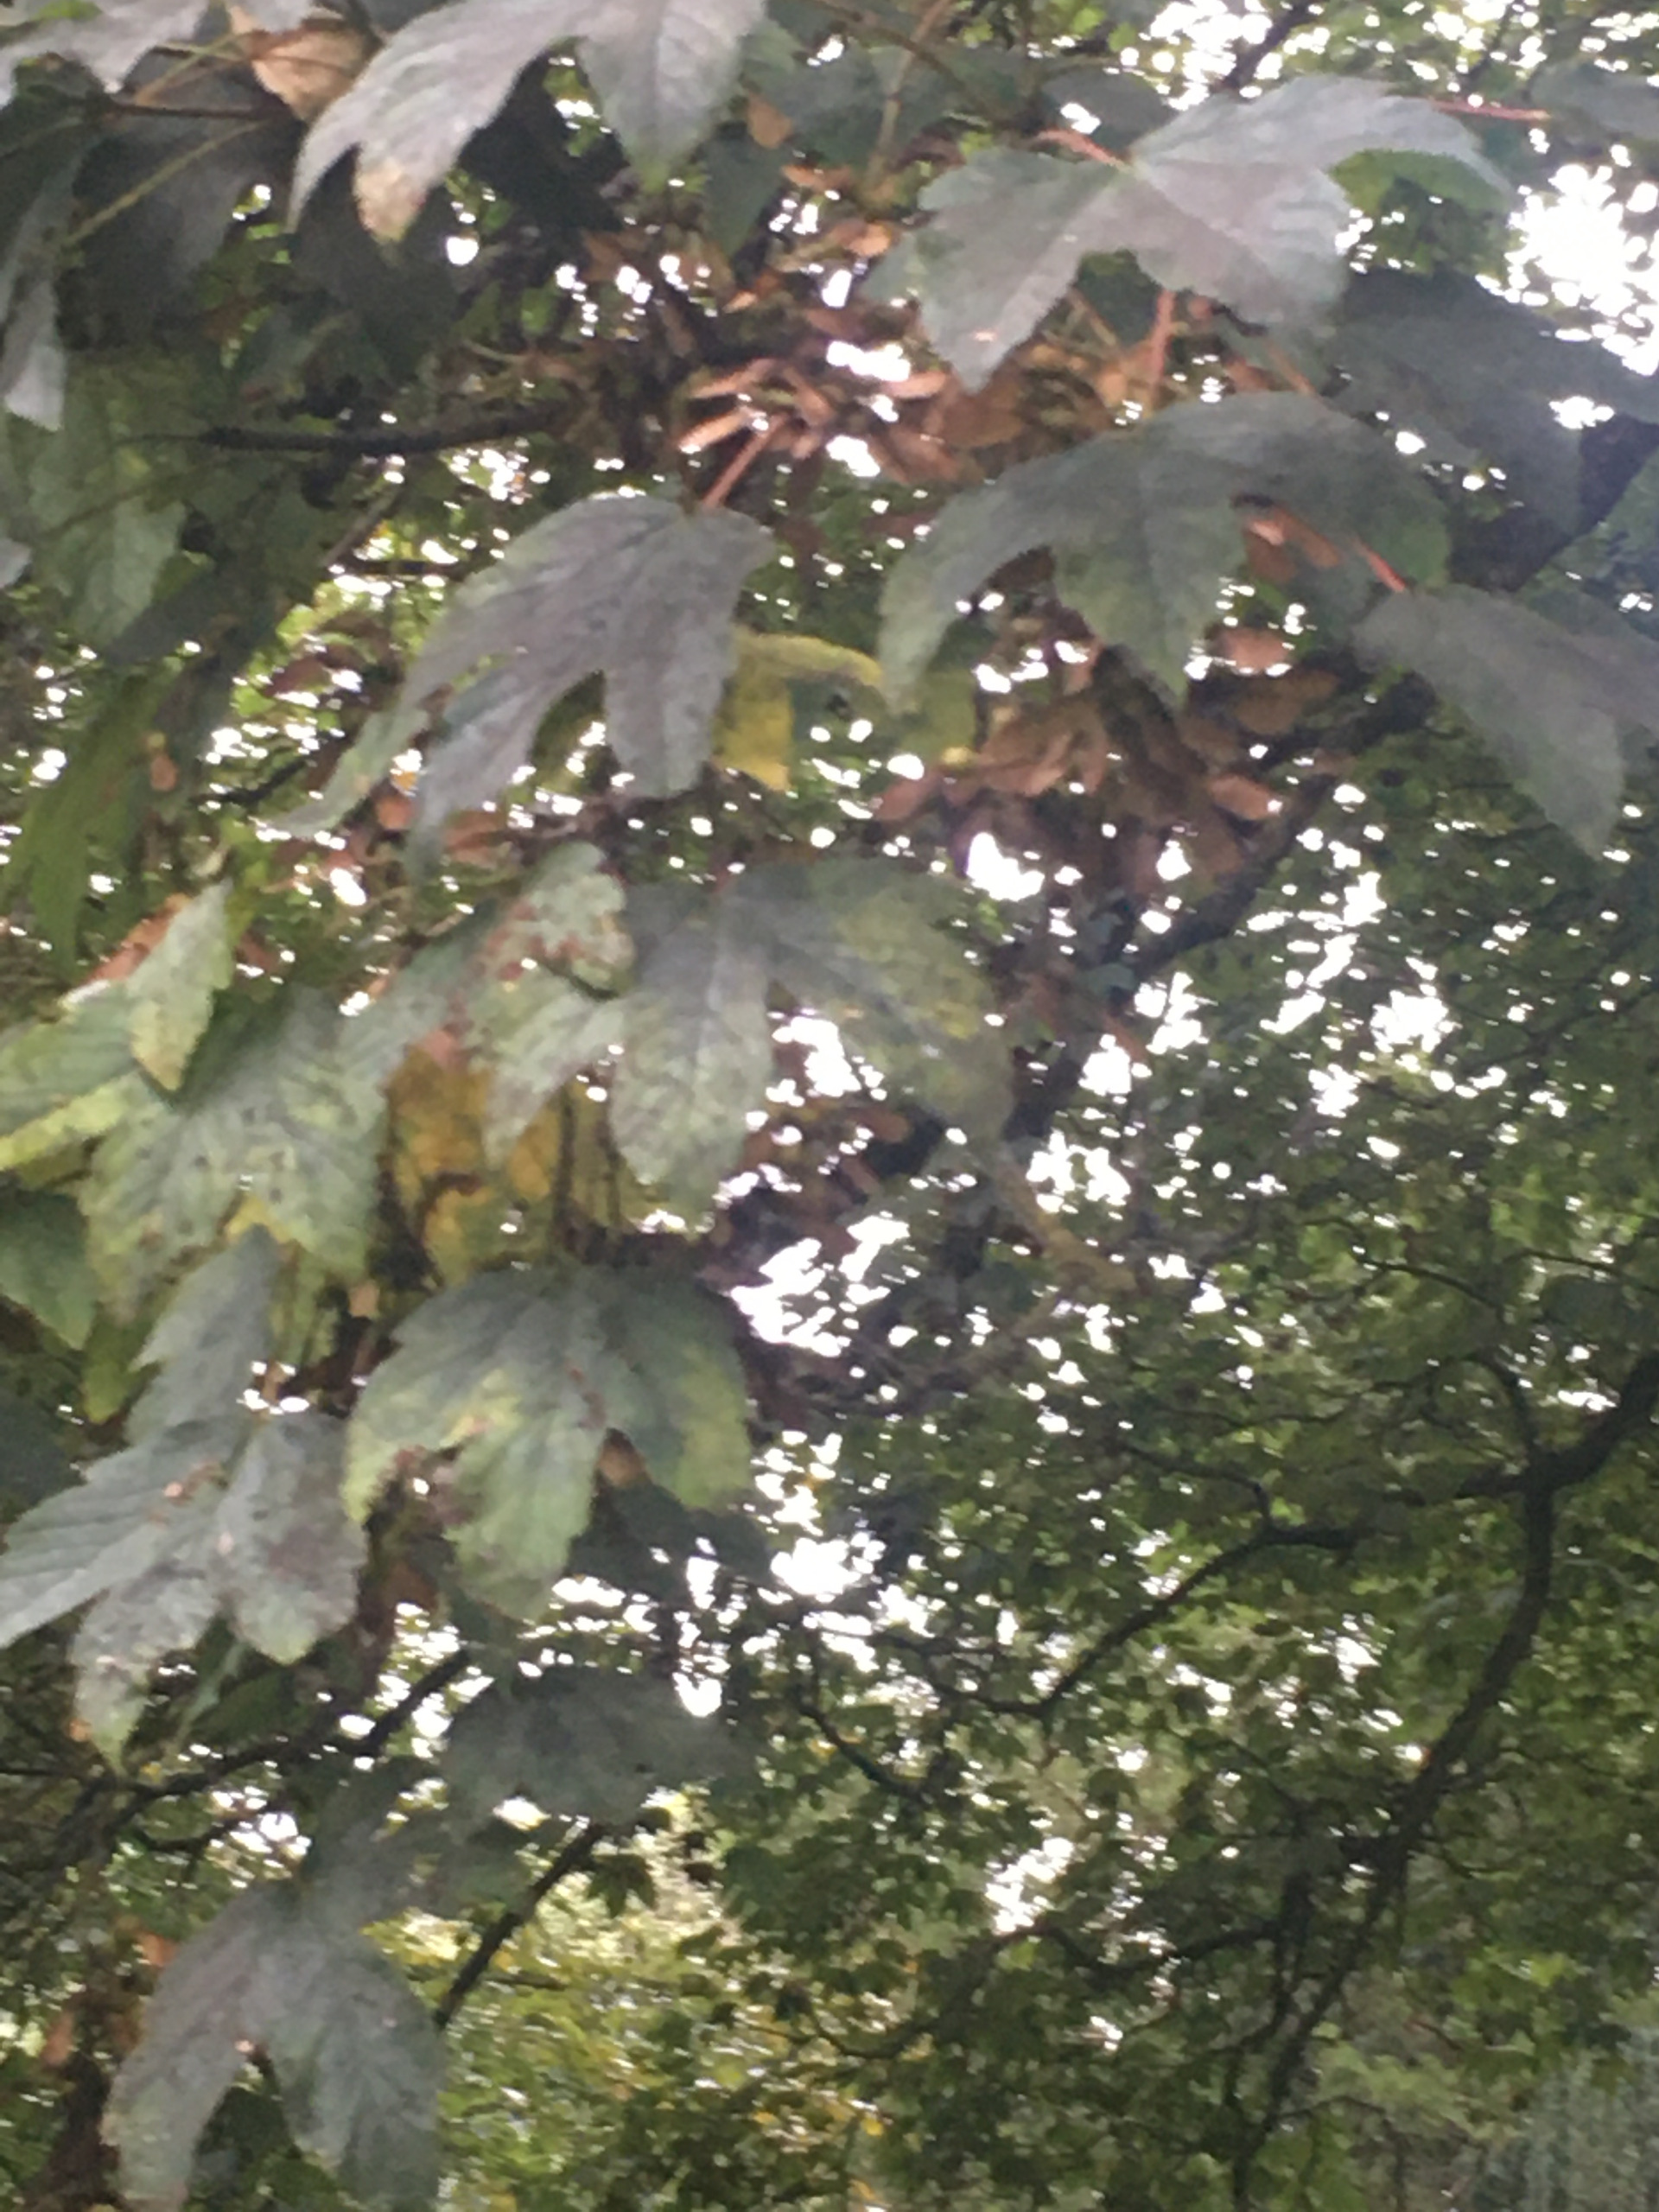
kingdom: Plantae
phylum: Tracheophyta
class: Magnoliopsida
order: Sapindales
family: Sapindaceae
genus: Acer
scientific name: Acer pseudoplatanus
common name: Ahorn
